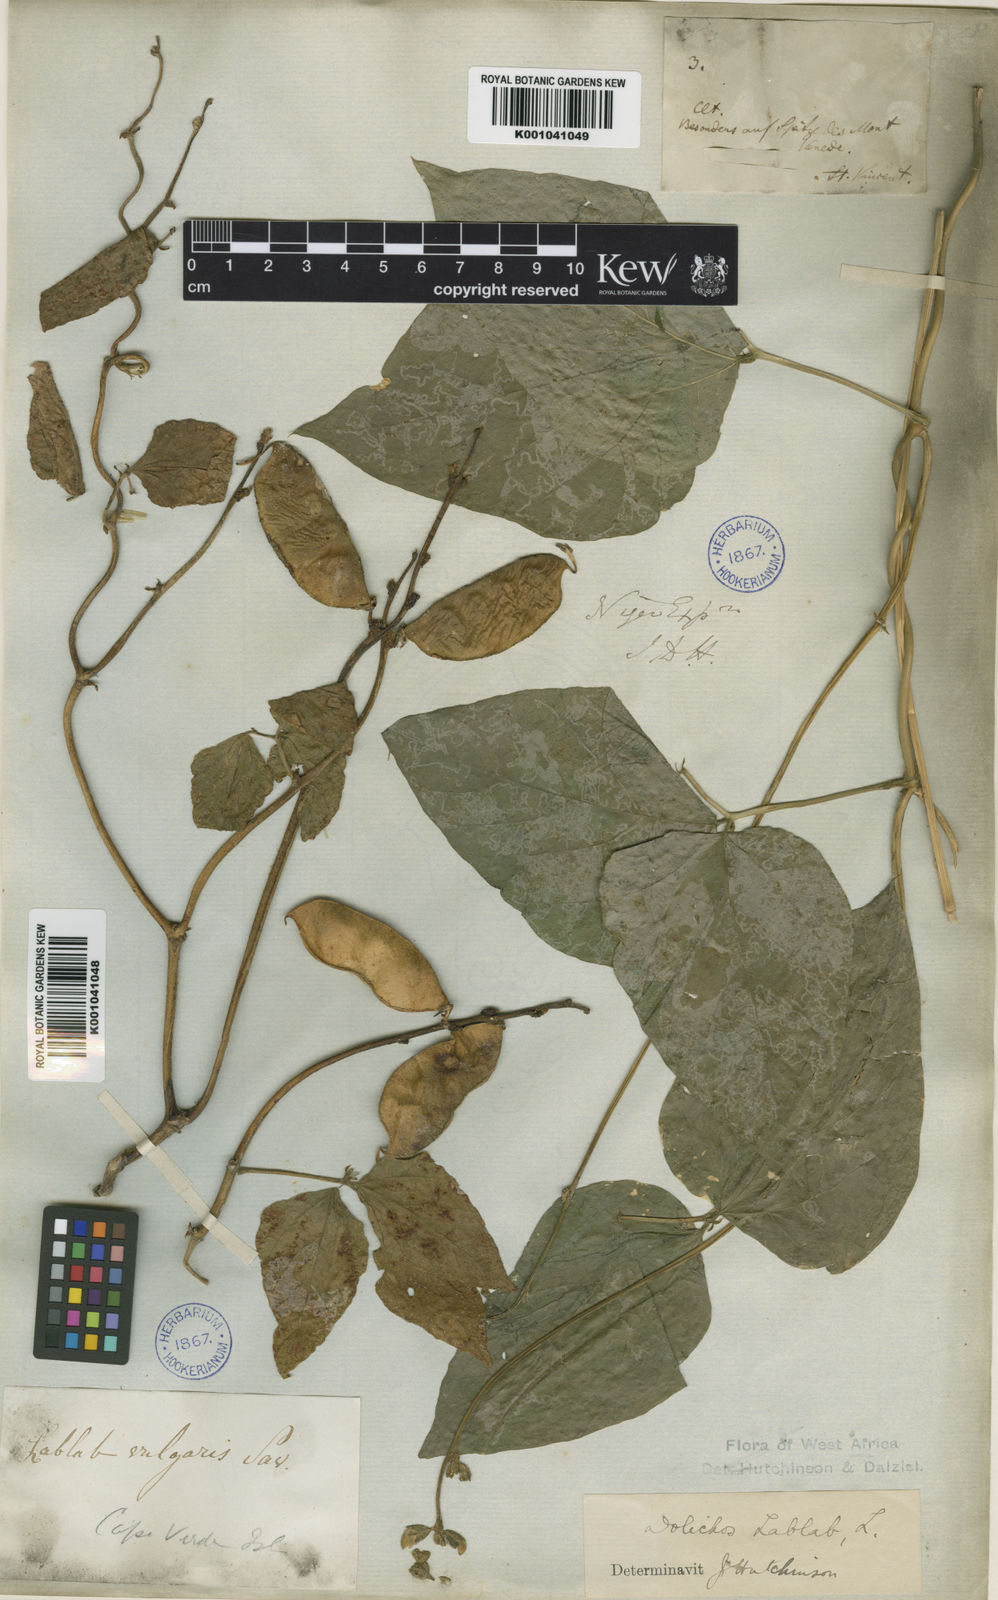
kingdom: Plantae
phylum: Tracheophyta
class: Magnoliopsida
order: Fabales
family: Fabaceae
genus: Lablab
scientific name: Lablab purpureus
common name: Lablab-bean
